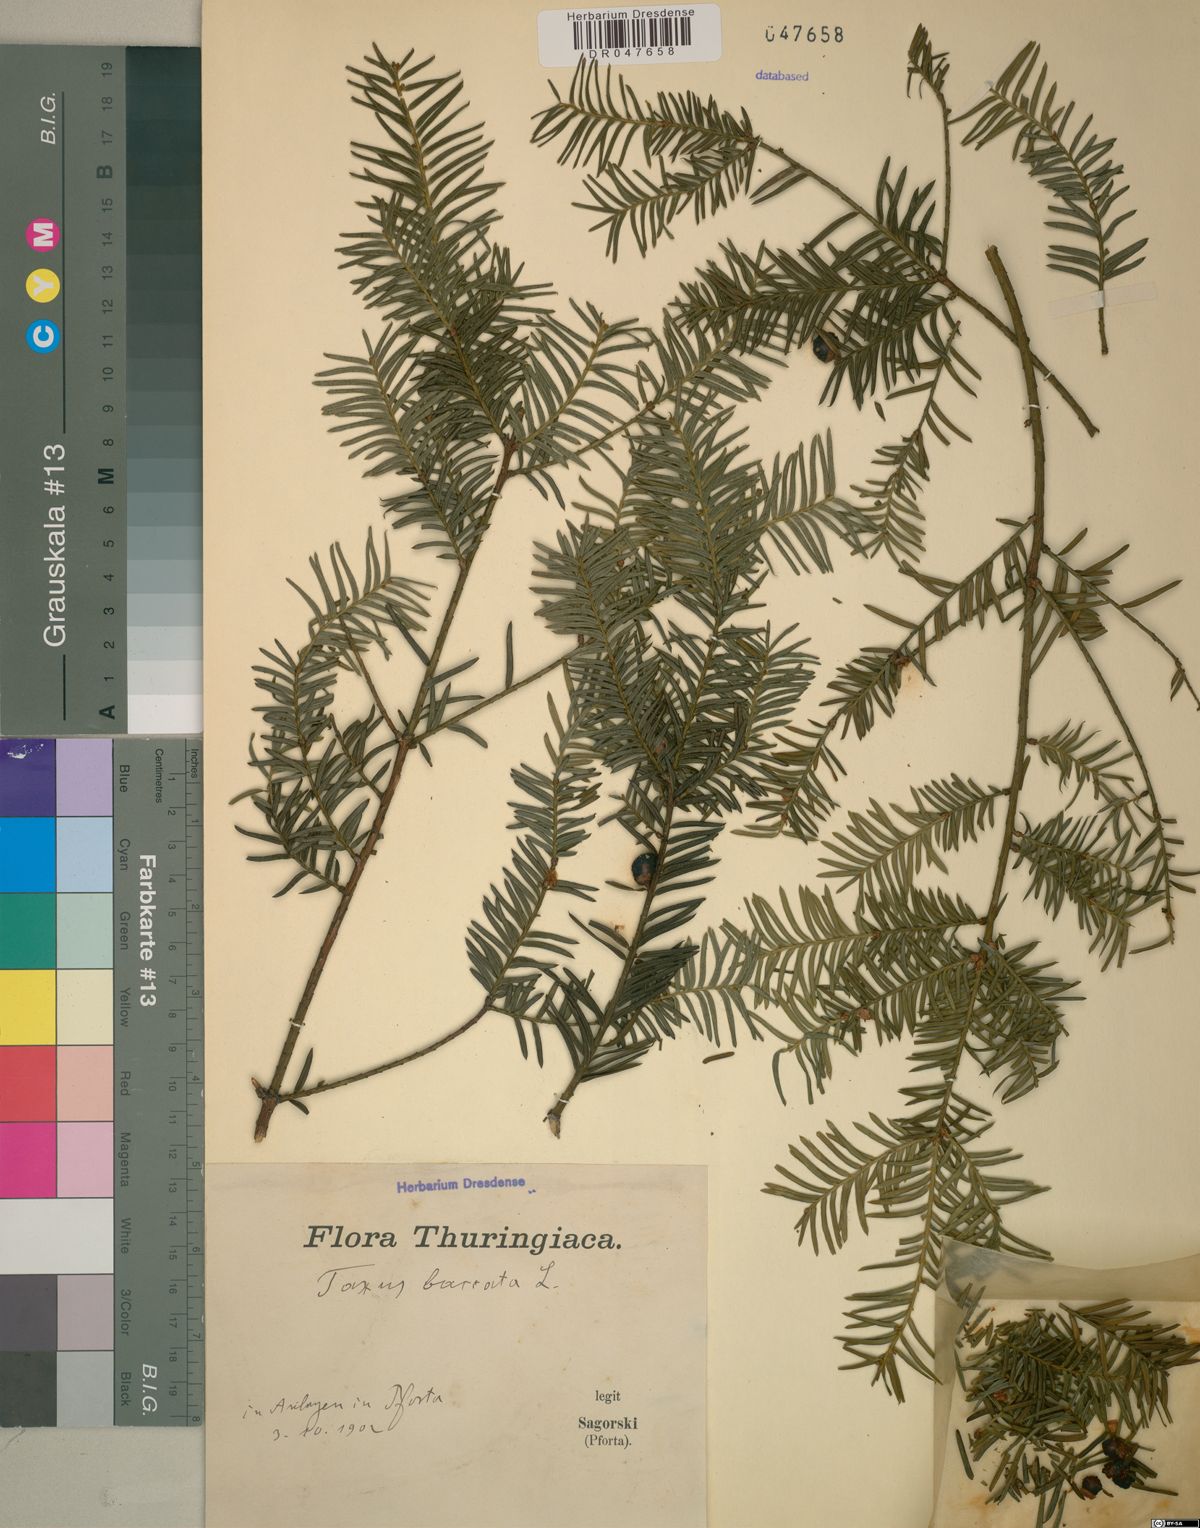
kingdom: Plantae
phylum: Tracheophyta
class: Pinopsida
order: Pinales
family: Taxaceae
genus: Taxus
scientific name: Taxus baccata
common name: Yew
